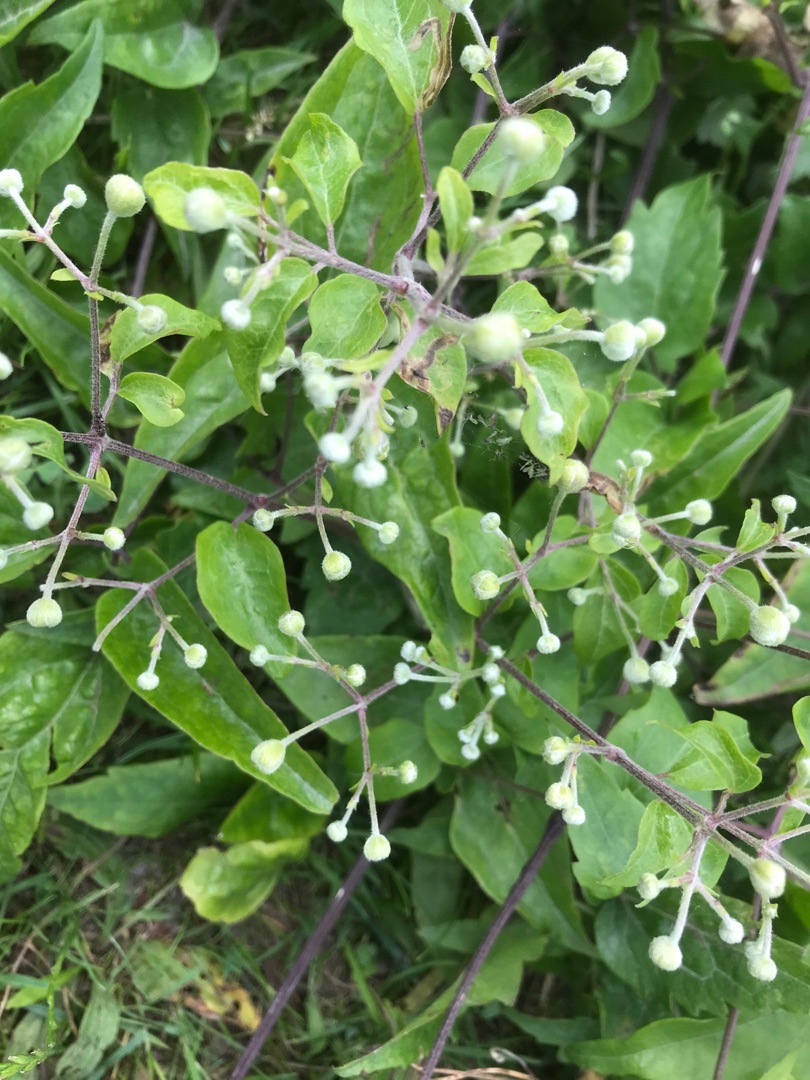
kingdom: Plantae
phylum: Tracheophyta
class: Magnoliopsida
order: Ranunculales
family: Ranunculaceae
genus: Clematis
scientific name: Clematis vitalba
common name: Skovranke
